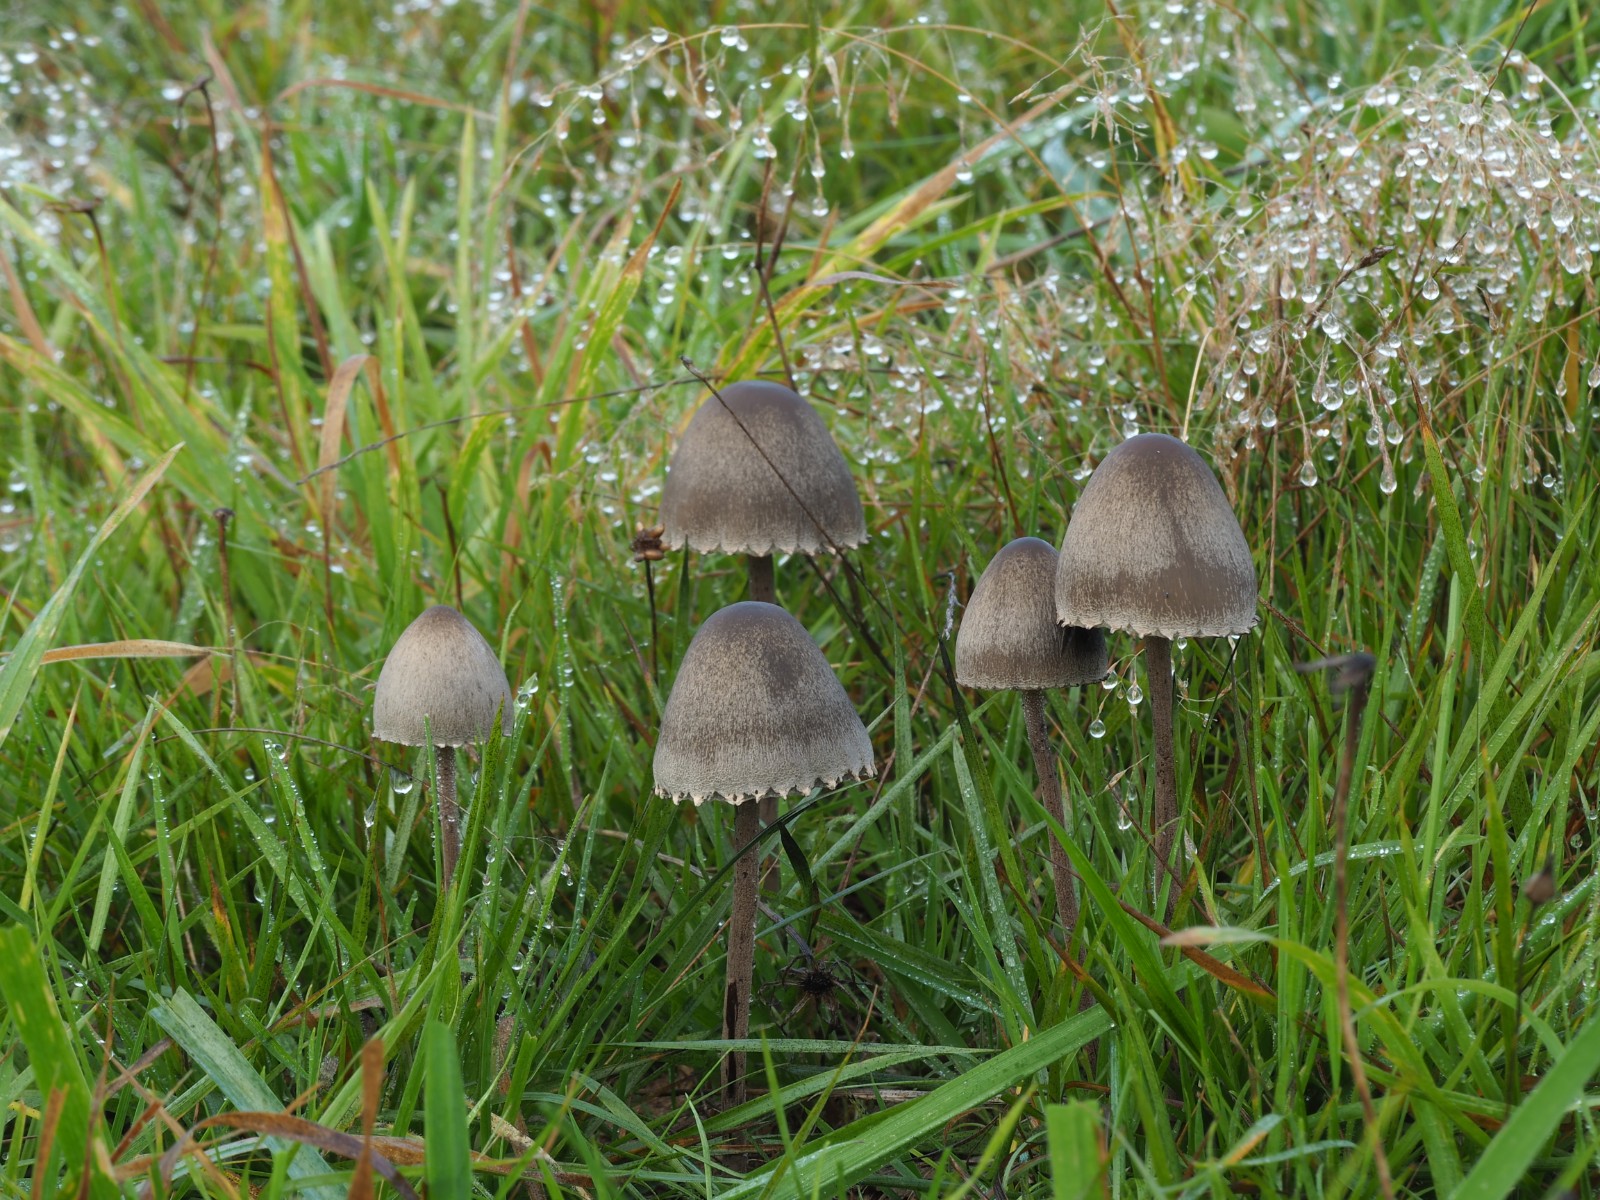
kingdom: Fungi
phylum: Basidiomycota
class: Agaricomycetes
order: Agaricales
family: Bolbitiaceae
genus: Panaeolus
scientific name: Panaeolus papilionaceus
